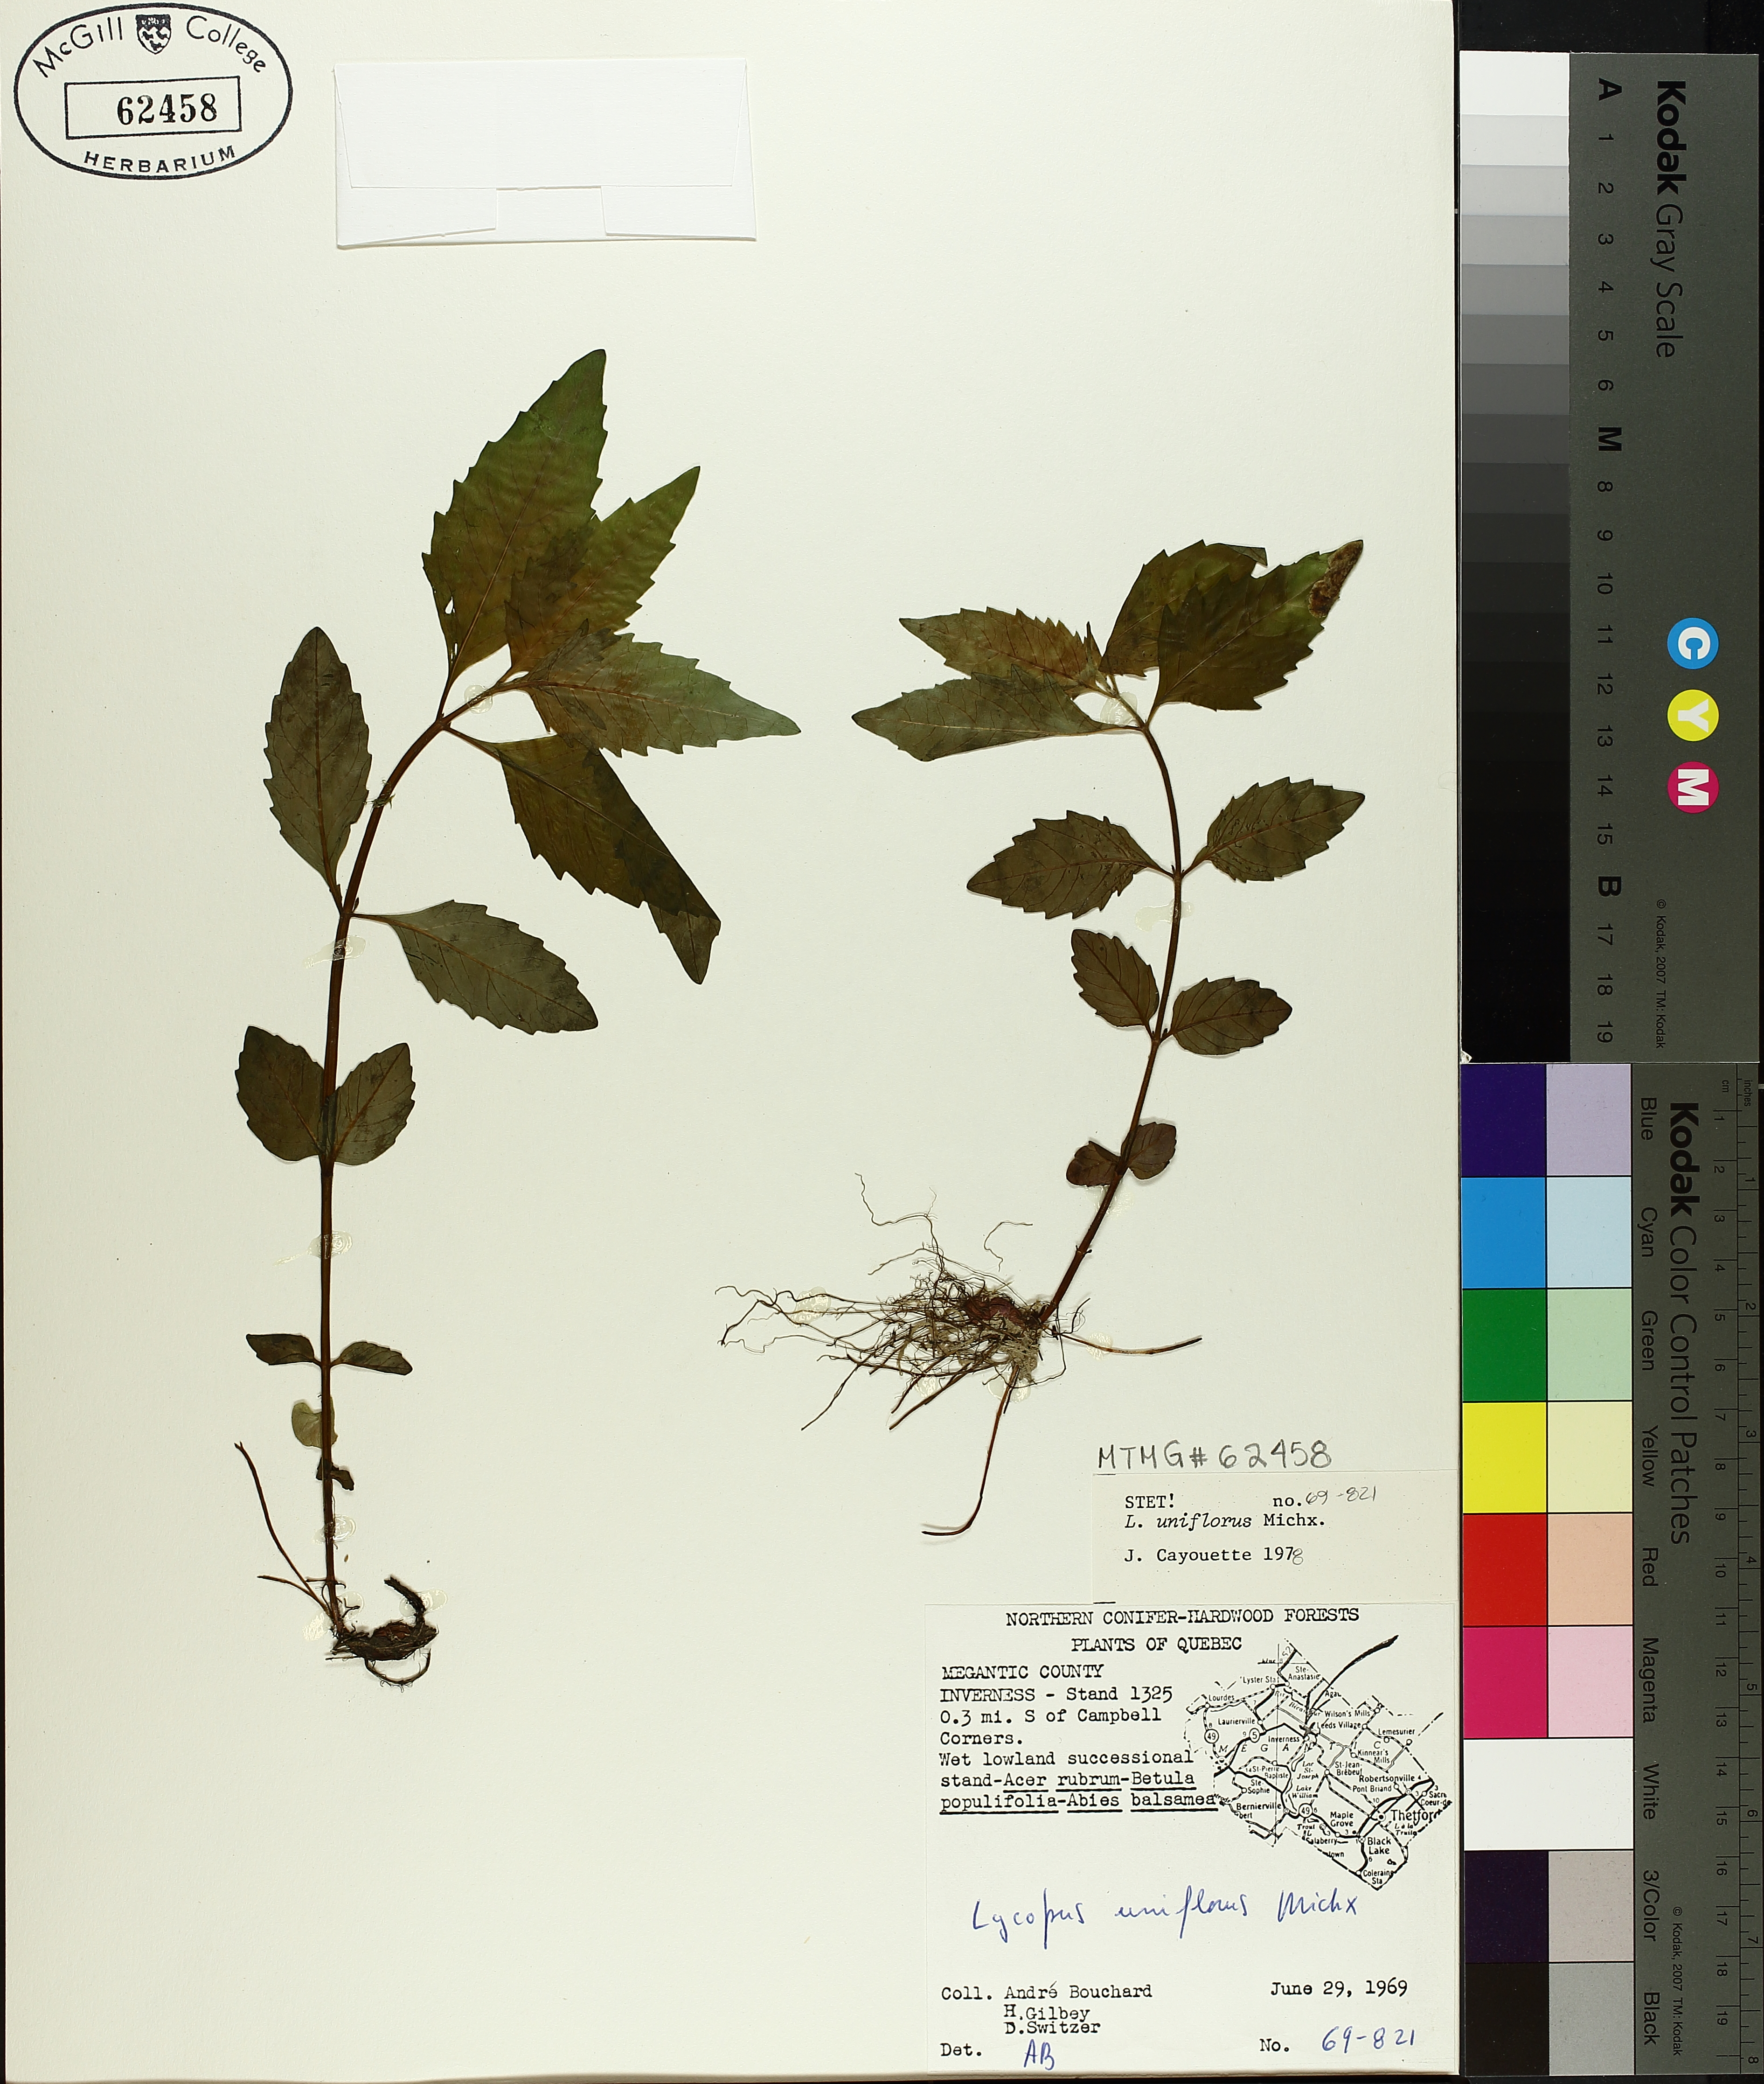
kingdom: Plantae
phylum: Tracheophyta
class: Magnoliopsida
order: Lamiales
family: Lamiaceae
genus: Lycopus
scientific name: Lycopus uniflorus
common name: Northern bugleweed
